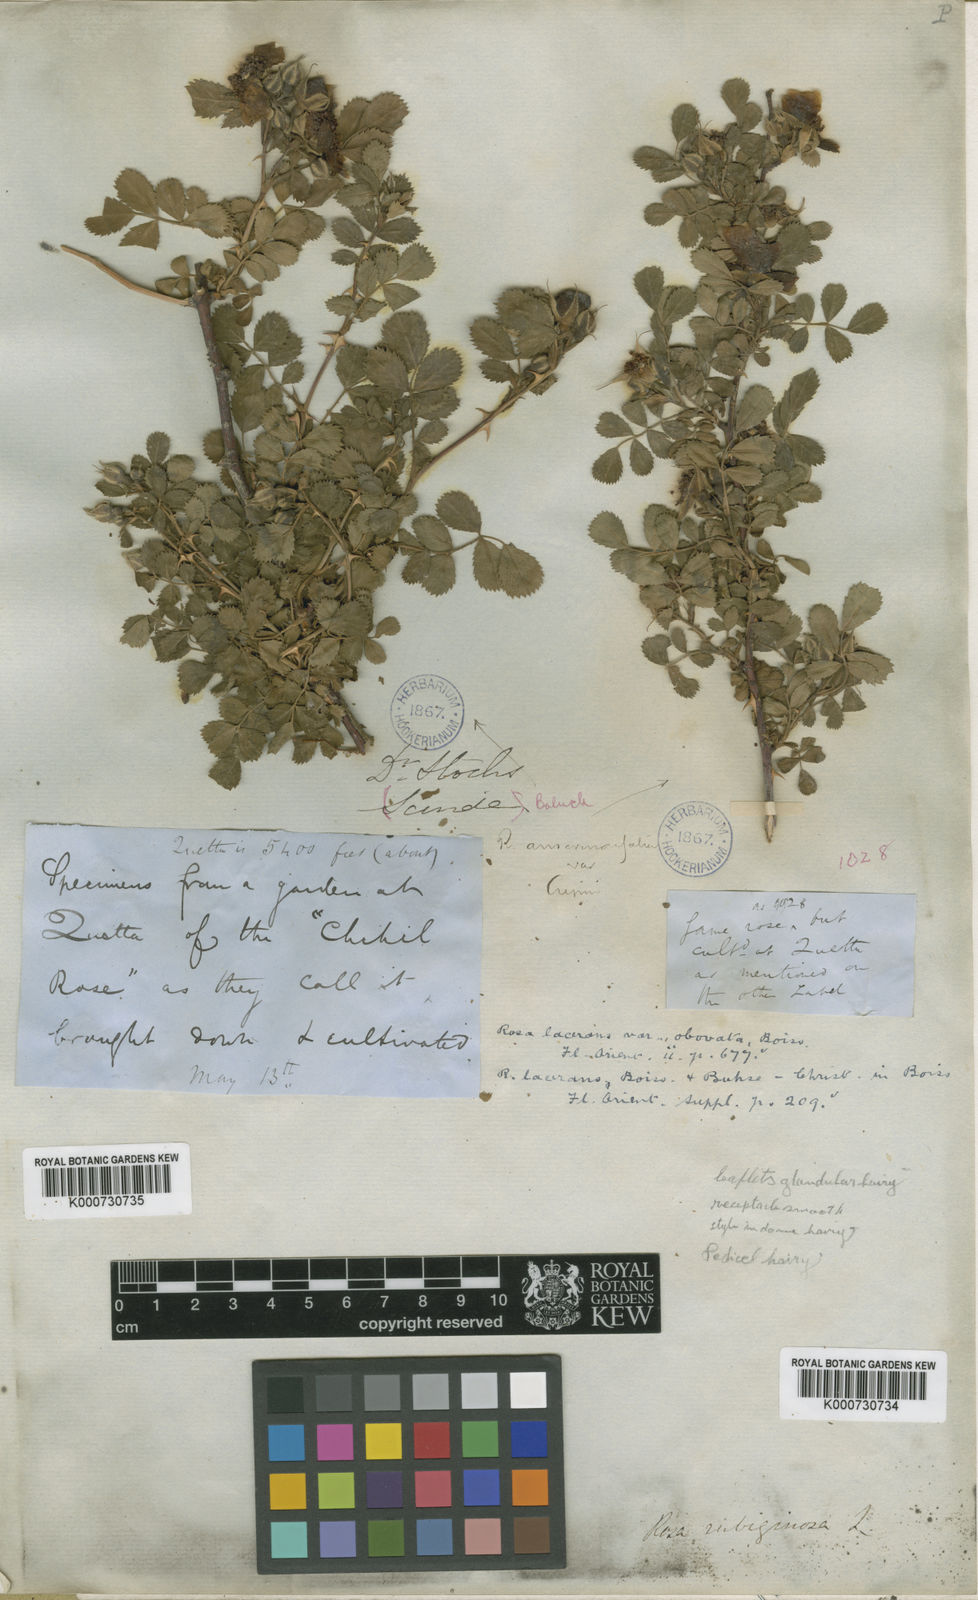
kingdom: Plantae
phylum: Tracheophyta
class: Magnoliopsida
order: Rosales
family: Rosaceae
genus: Rosa
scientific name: Rosa beggeriana
